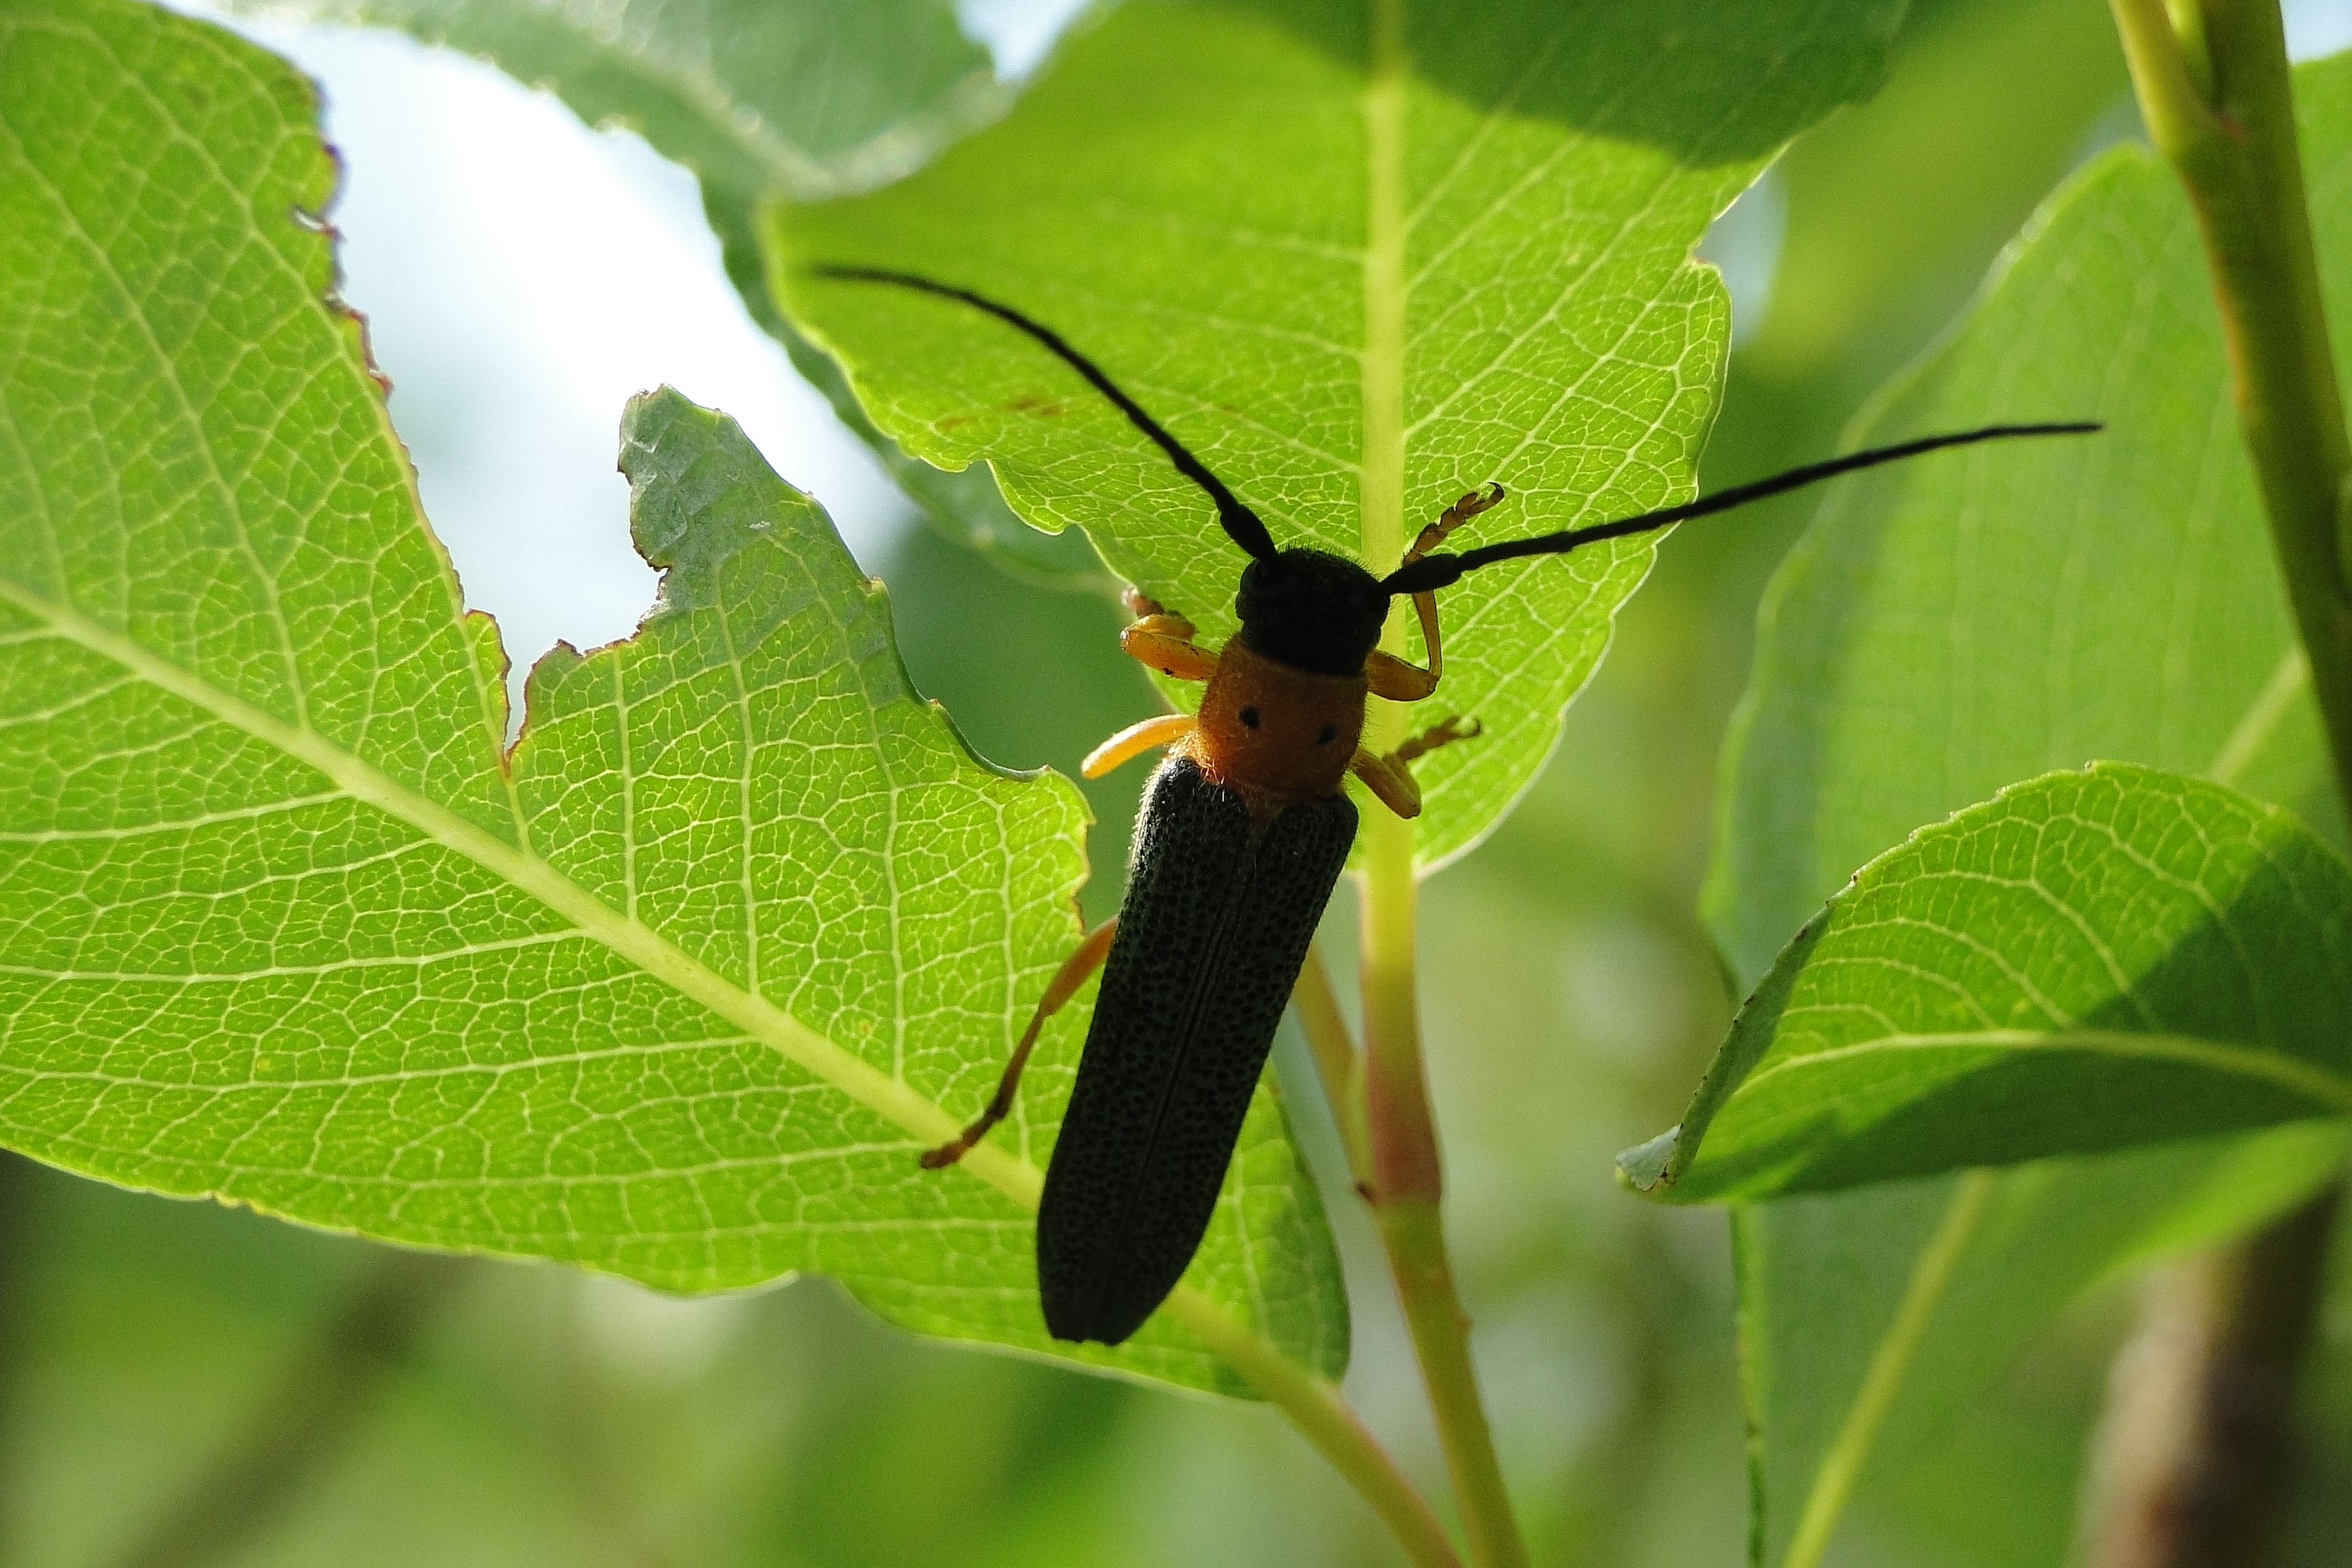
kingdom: Animalia
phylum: Arthropoda
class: Insecta
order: Coleoptera
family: Cerambycidae
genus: Oberea
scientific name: Oberea oculata
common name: Eyed longhorn beetle
